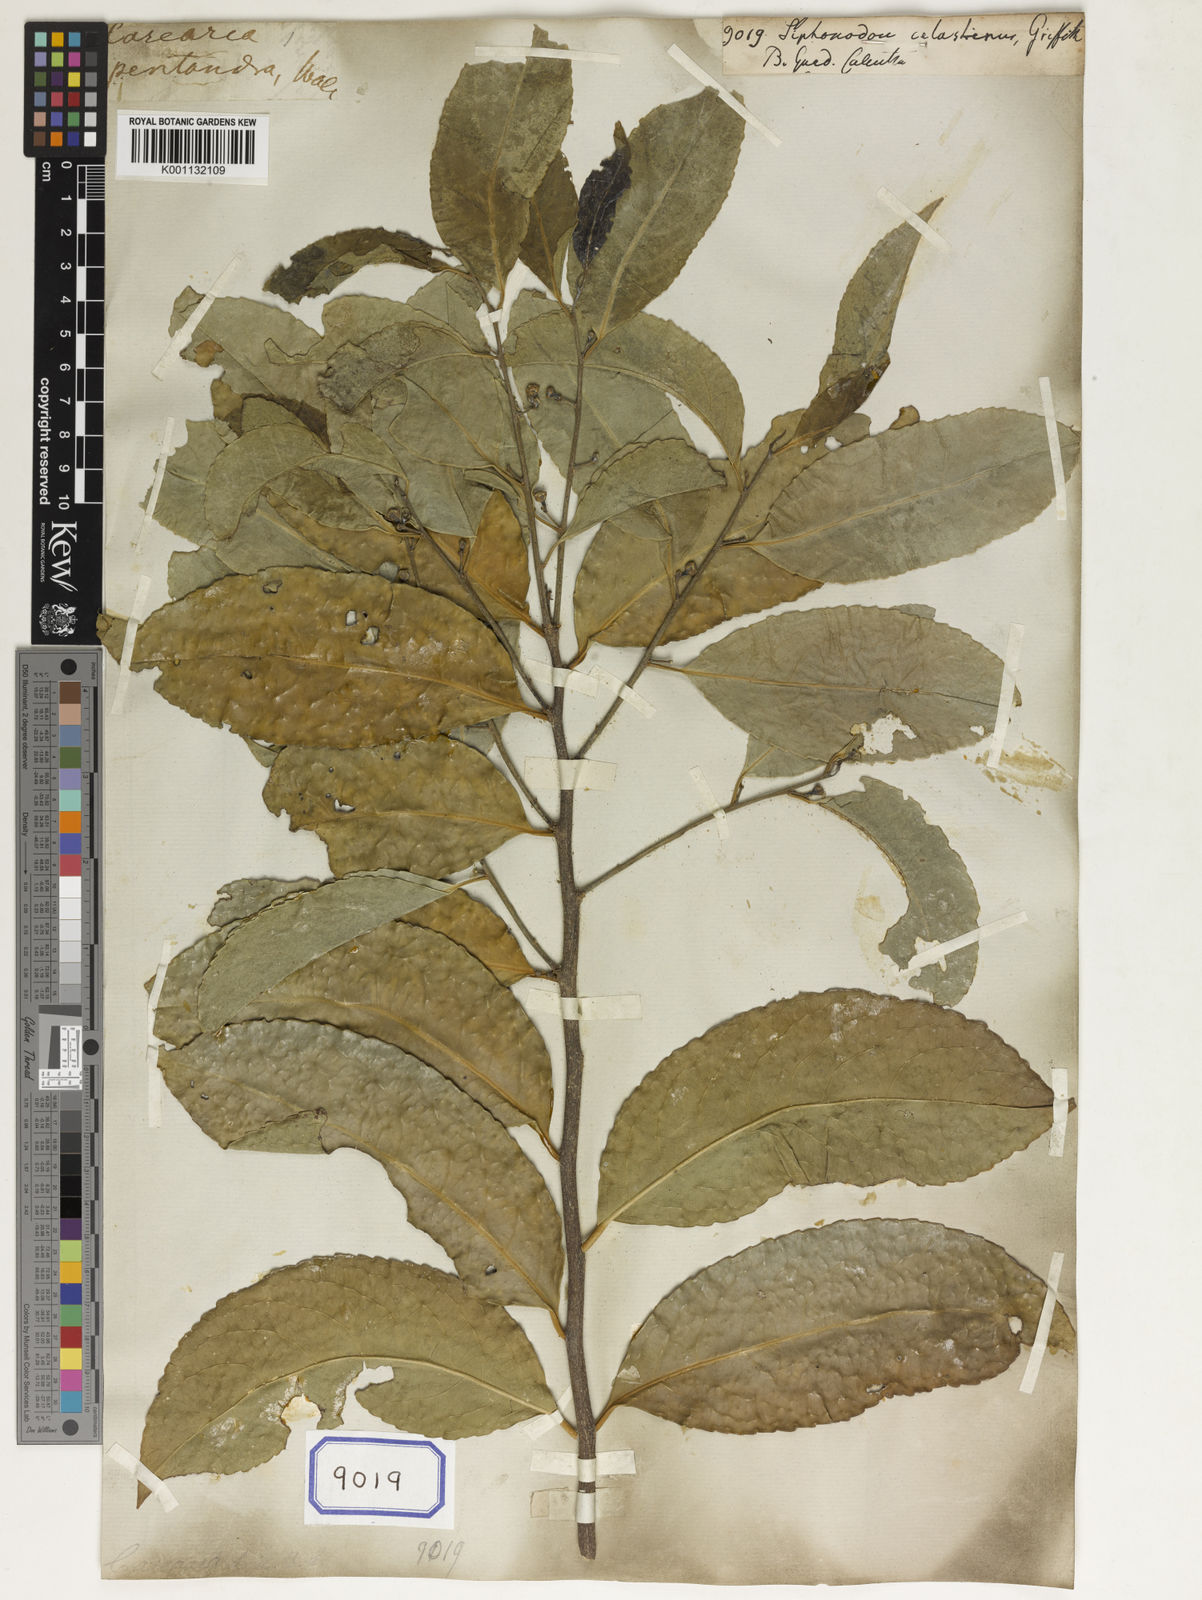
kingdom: Plantae
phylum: Tracheophyta
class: Magnoliopsida
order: Celastrales
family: Celastraceae
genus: Siphonodon
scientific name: Siphonodon celastrineus
